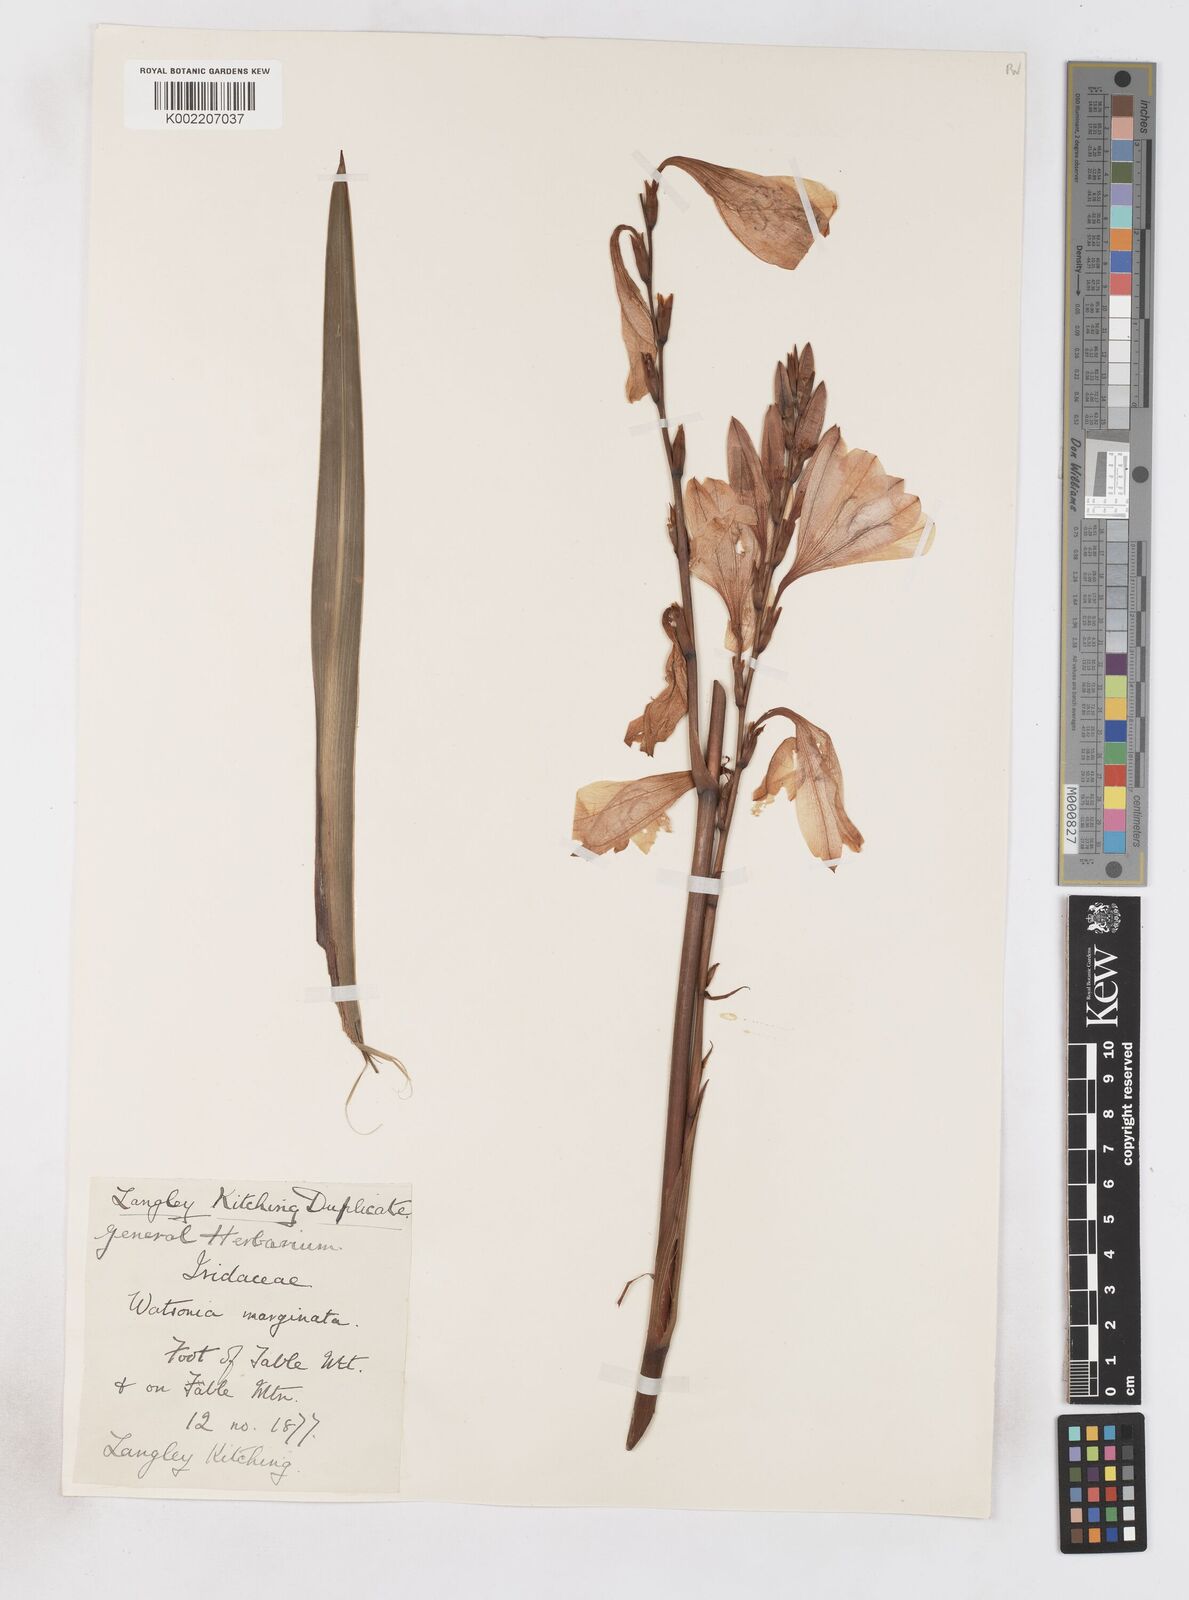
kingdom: Plantae
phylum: Tracheophyta
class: Liliopsida
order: Asparagales
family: Iridaceae
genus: Watsonia
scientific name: Watsonia borbonica
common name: Bugle-lily
